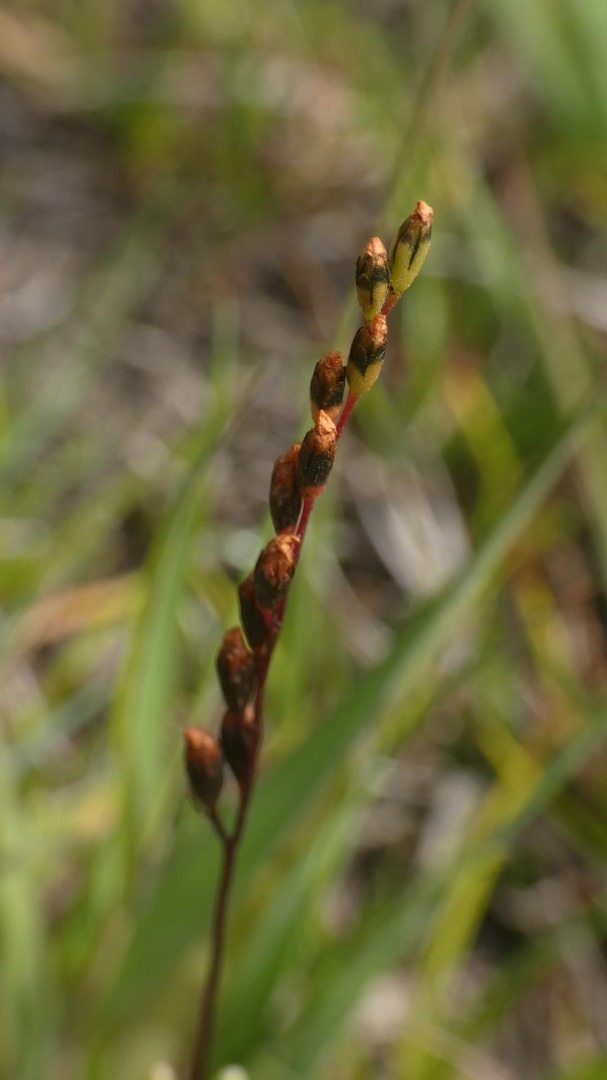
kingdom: Plantae
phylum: Tracheophyta
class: Magnoliopsida
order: Caryophyllales
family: Droseraceae
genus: Drosera
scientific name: Drosera rotundifolia
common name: Rundbladet soldug
